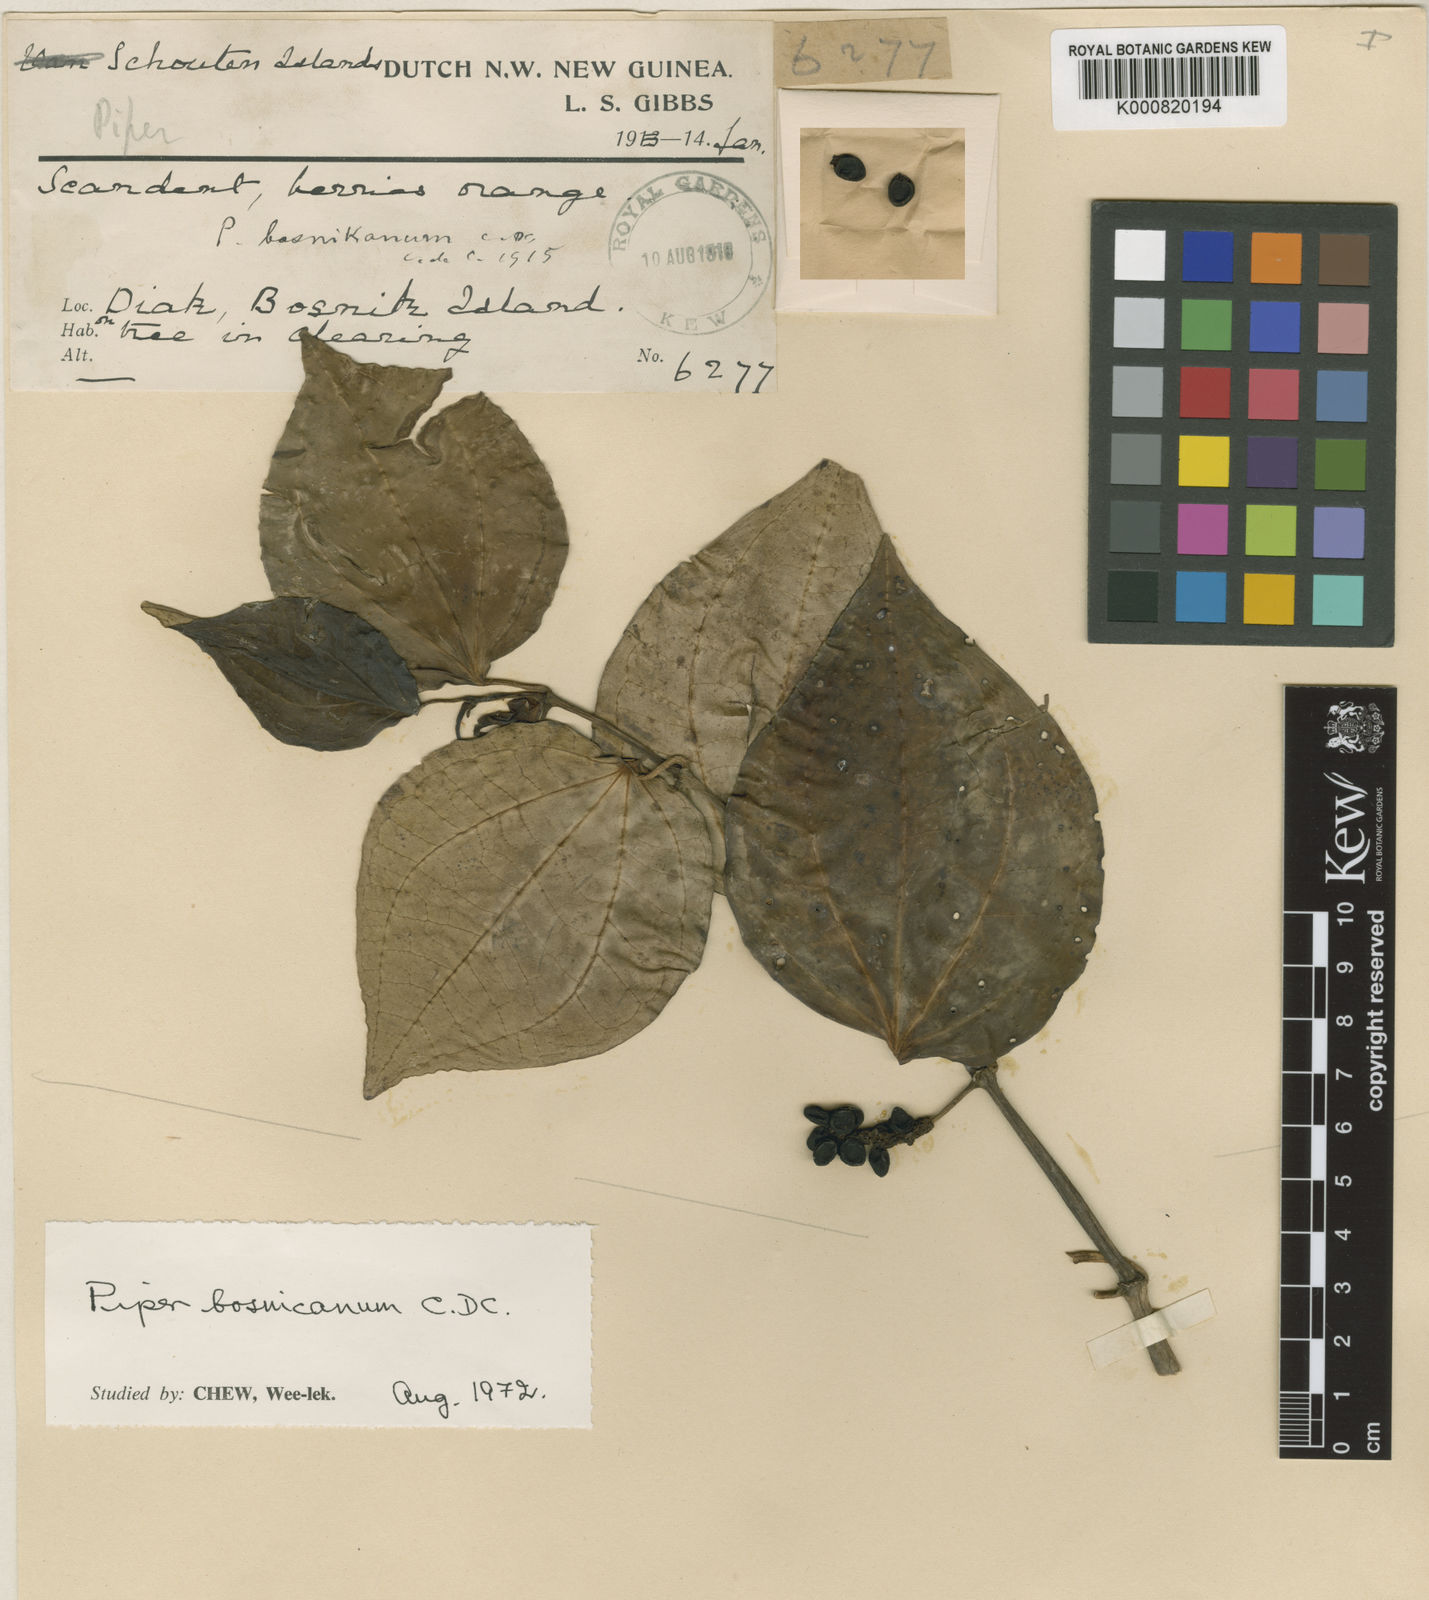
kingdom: Plantae
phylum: Tracheophyta
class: Magnoliopsida
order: Piperales
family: Piperaceae
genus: Piper
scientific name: Piper bosnicanum
